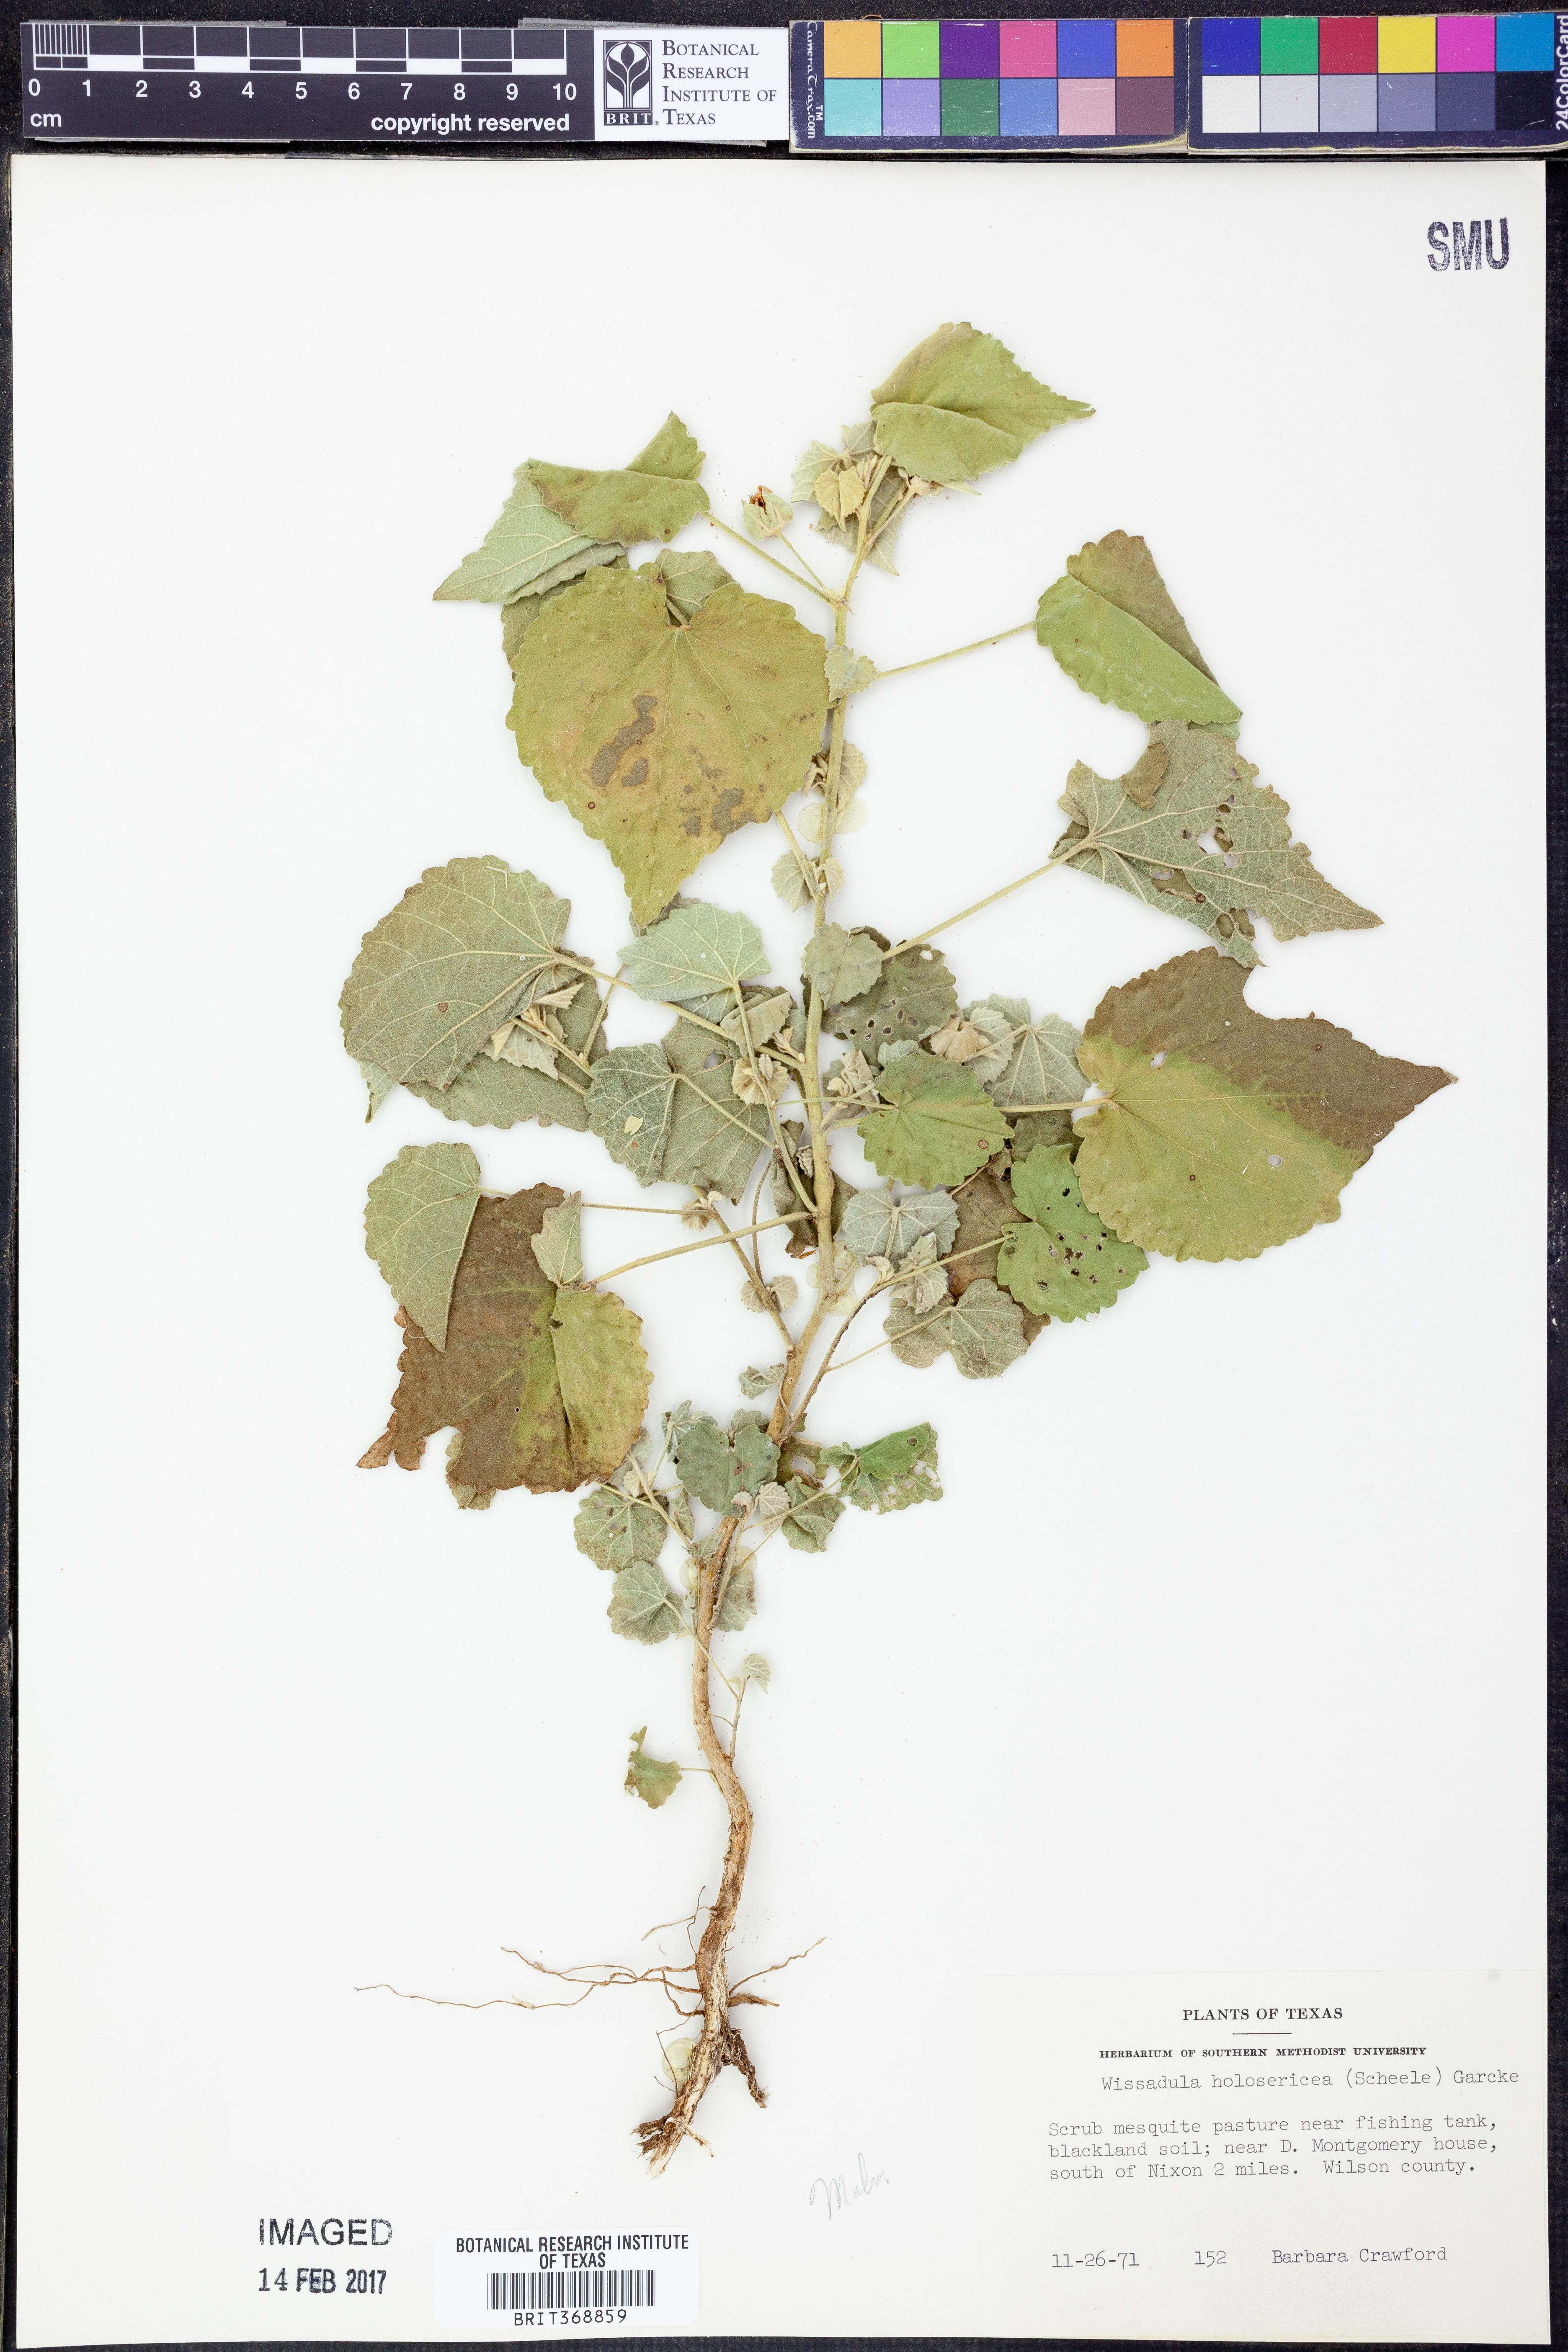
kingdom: Plantae
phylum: Tracheophyta
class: Magnoliopsida
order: Malvales
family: Malvaceae
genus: Allowissadula
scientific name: Allowissadula holosericea
